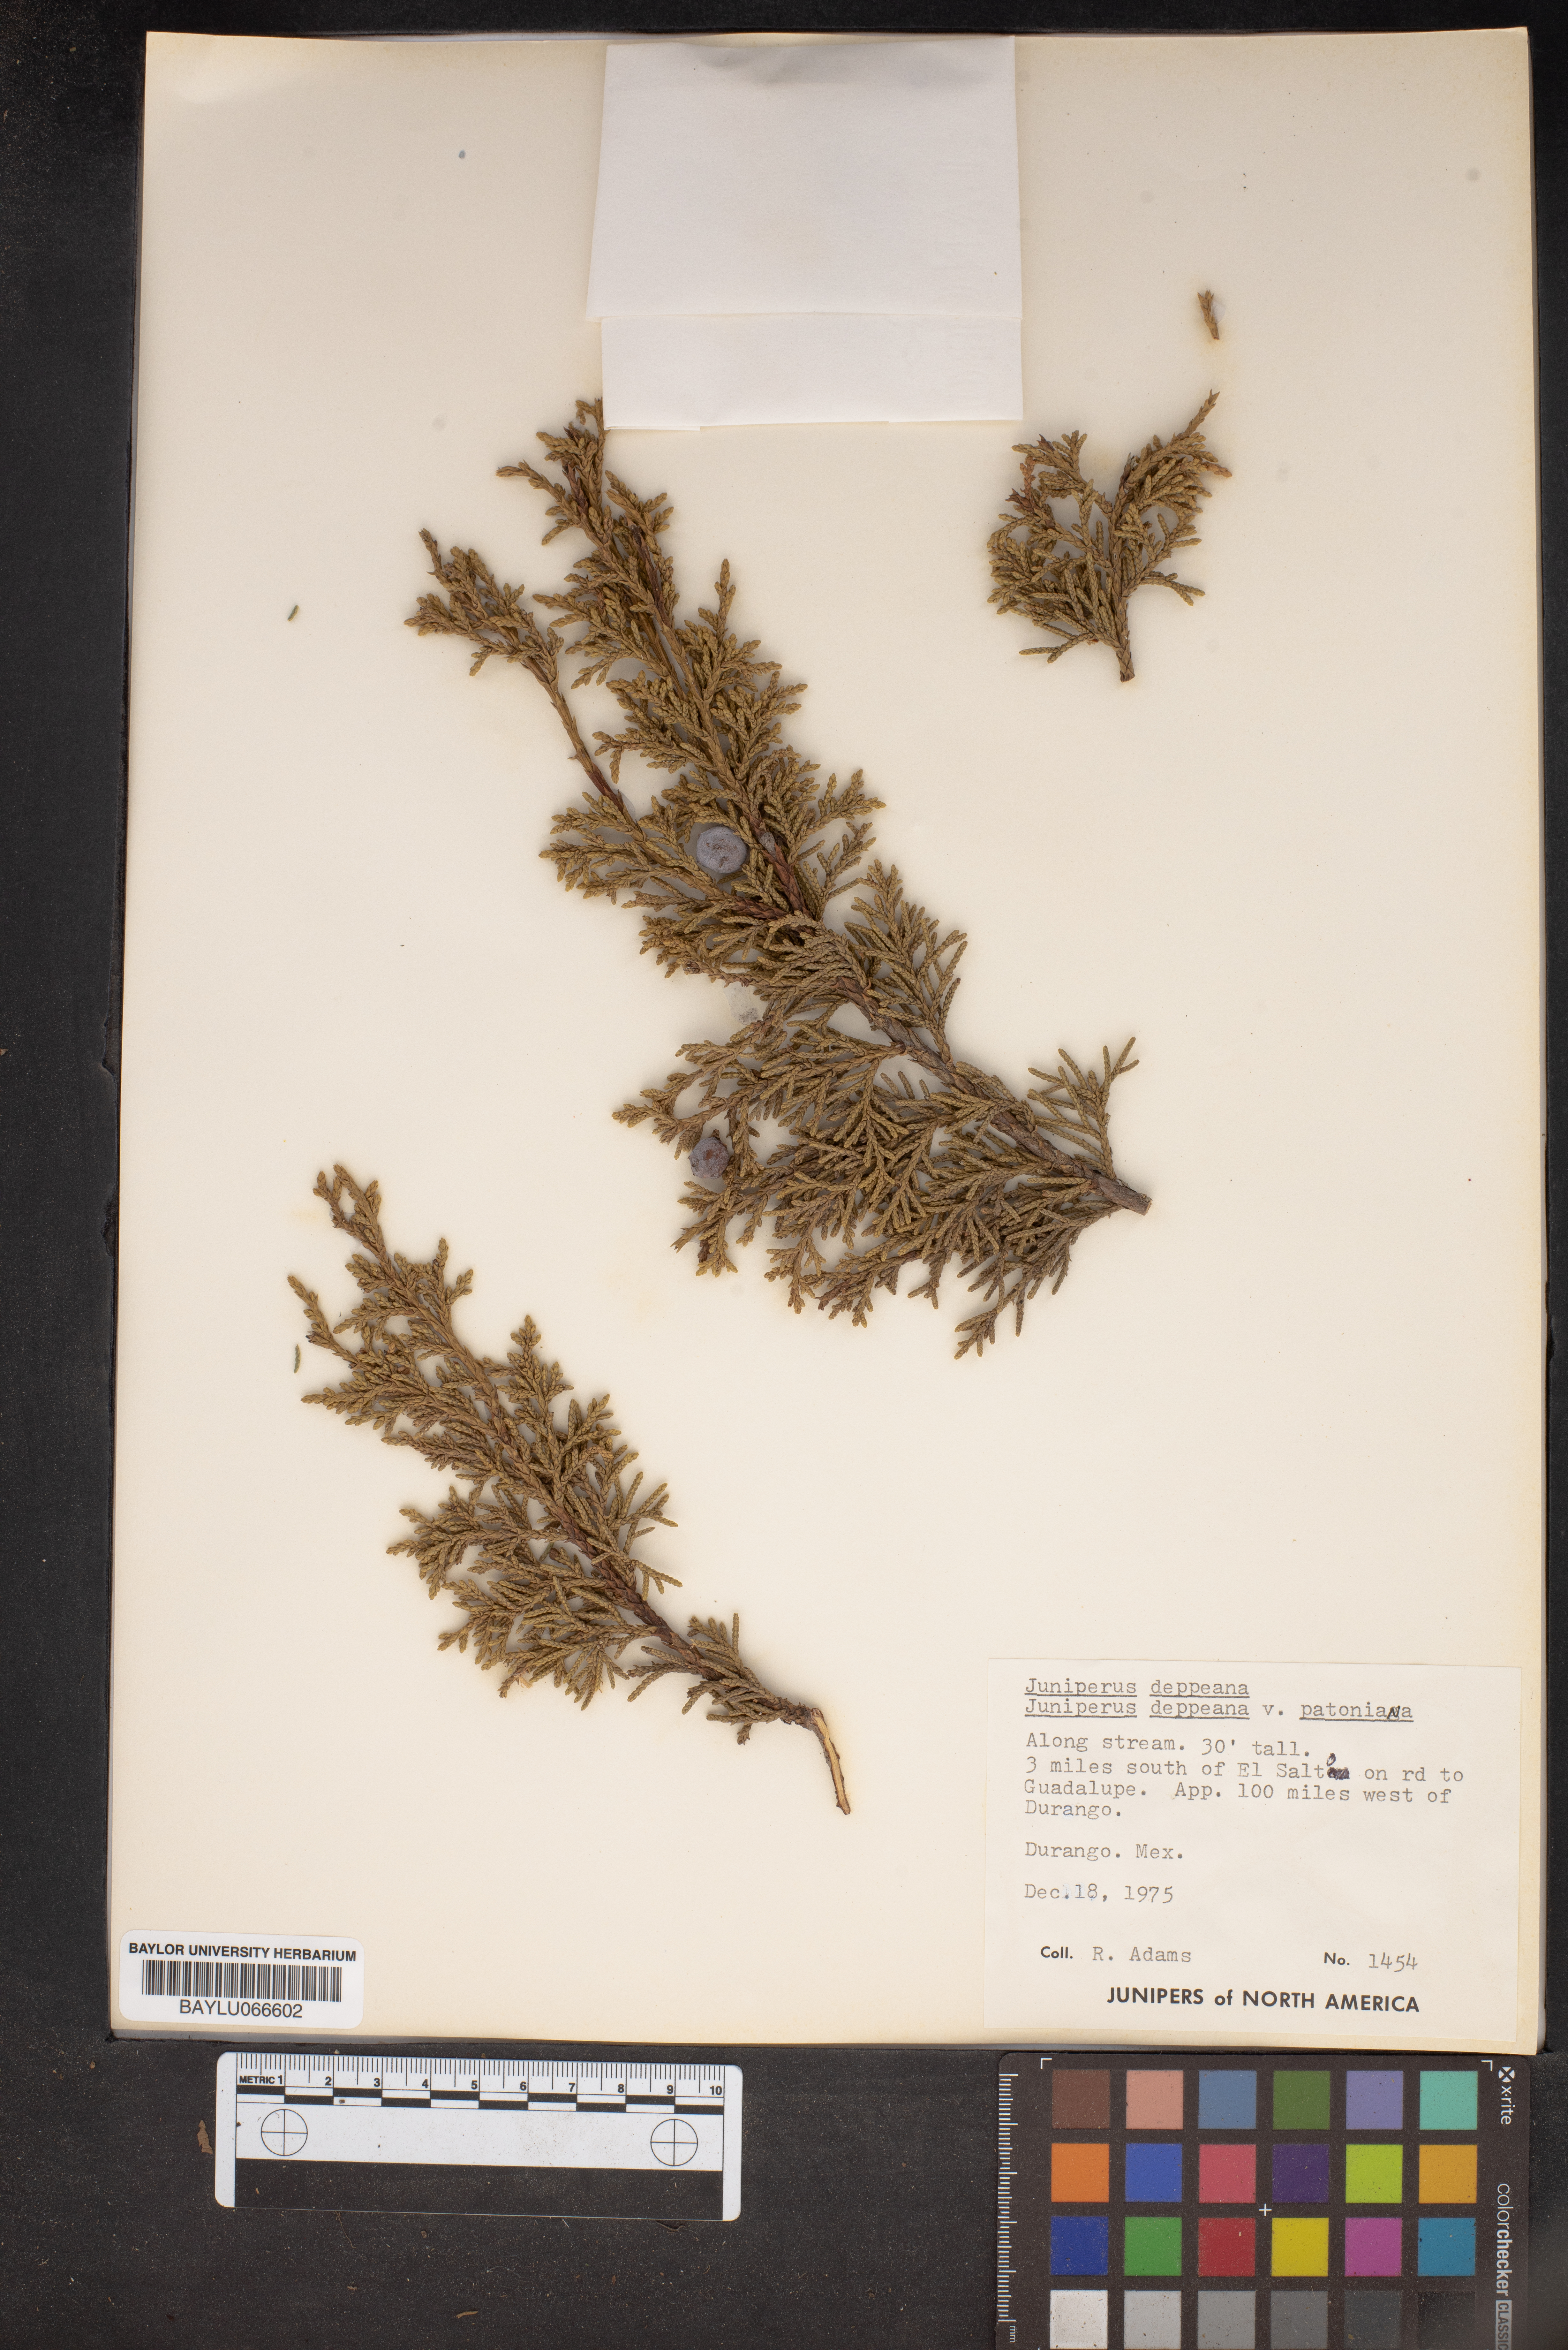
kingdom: Plantae
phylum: Tracheophyta
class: Pinopsida
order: Pinales
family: Cupressaceae
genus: Juniperus
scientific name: Juniperus deppeana
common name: Alligator juniper
